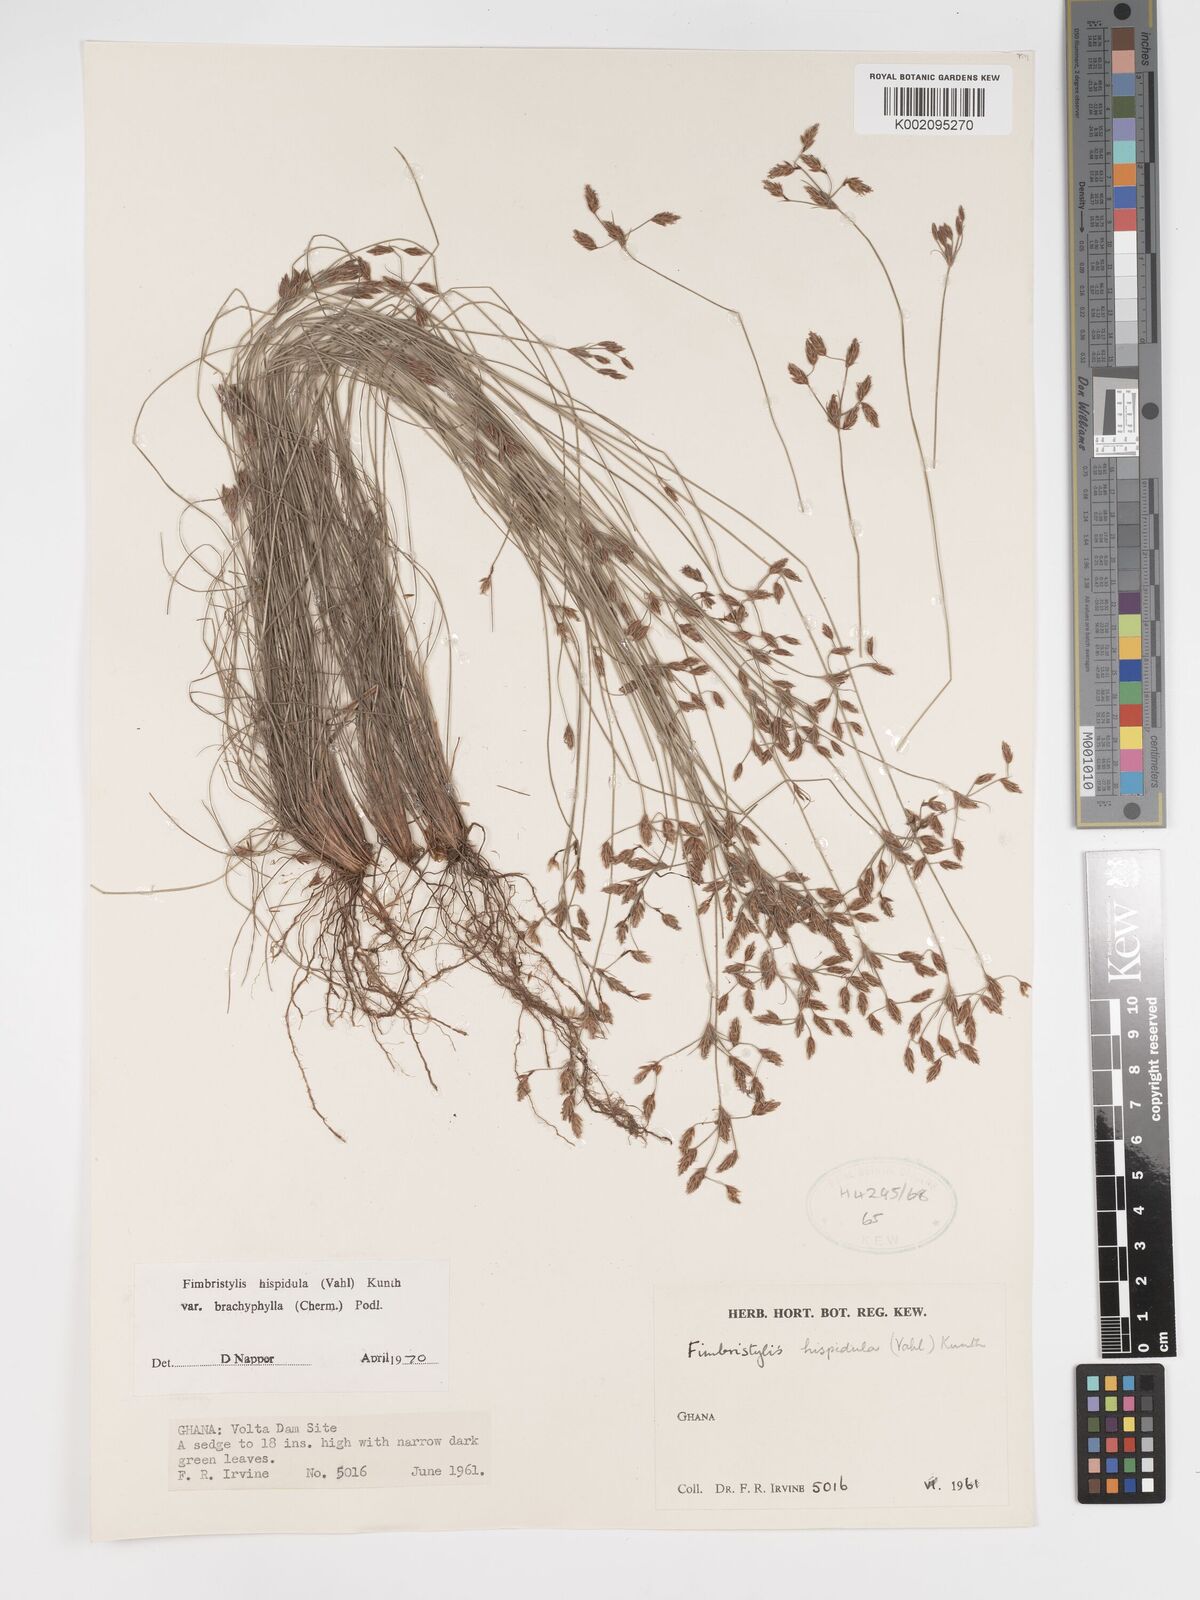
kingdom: Plantae
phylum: Tracheophyta
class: Liliopsida
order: Poales
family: Cyperaceae
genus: Bulbostylis
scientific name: Bulbostylis hispidula
